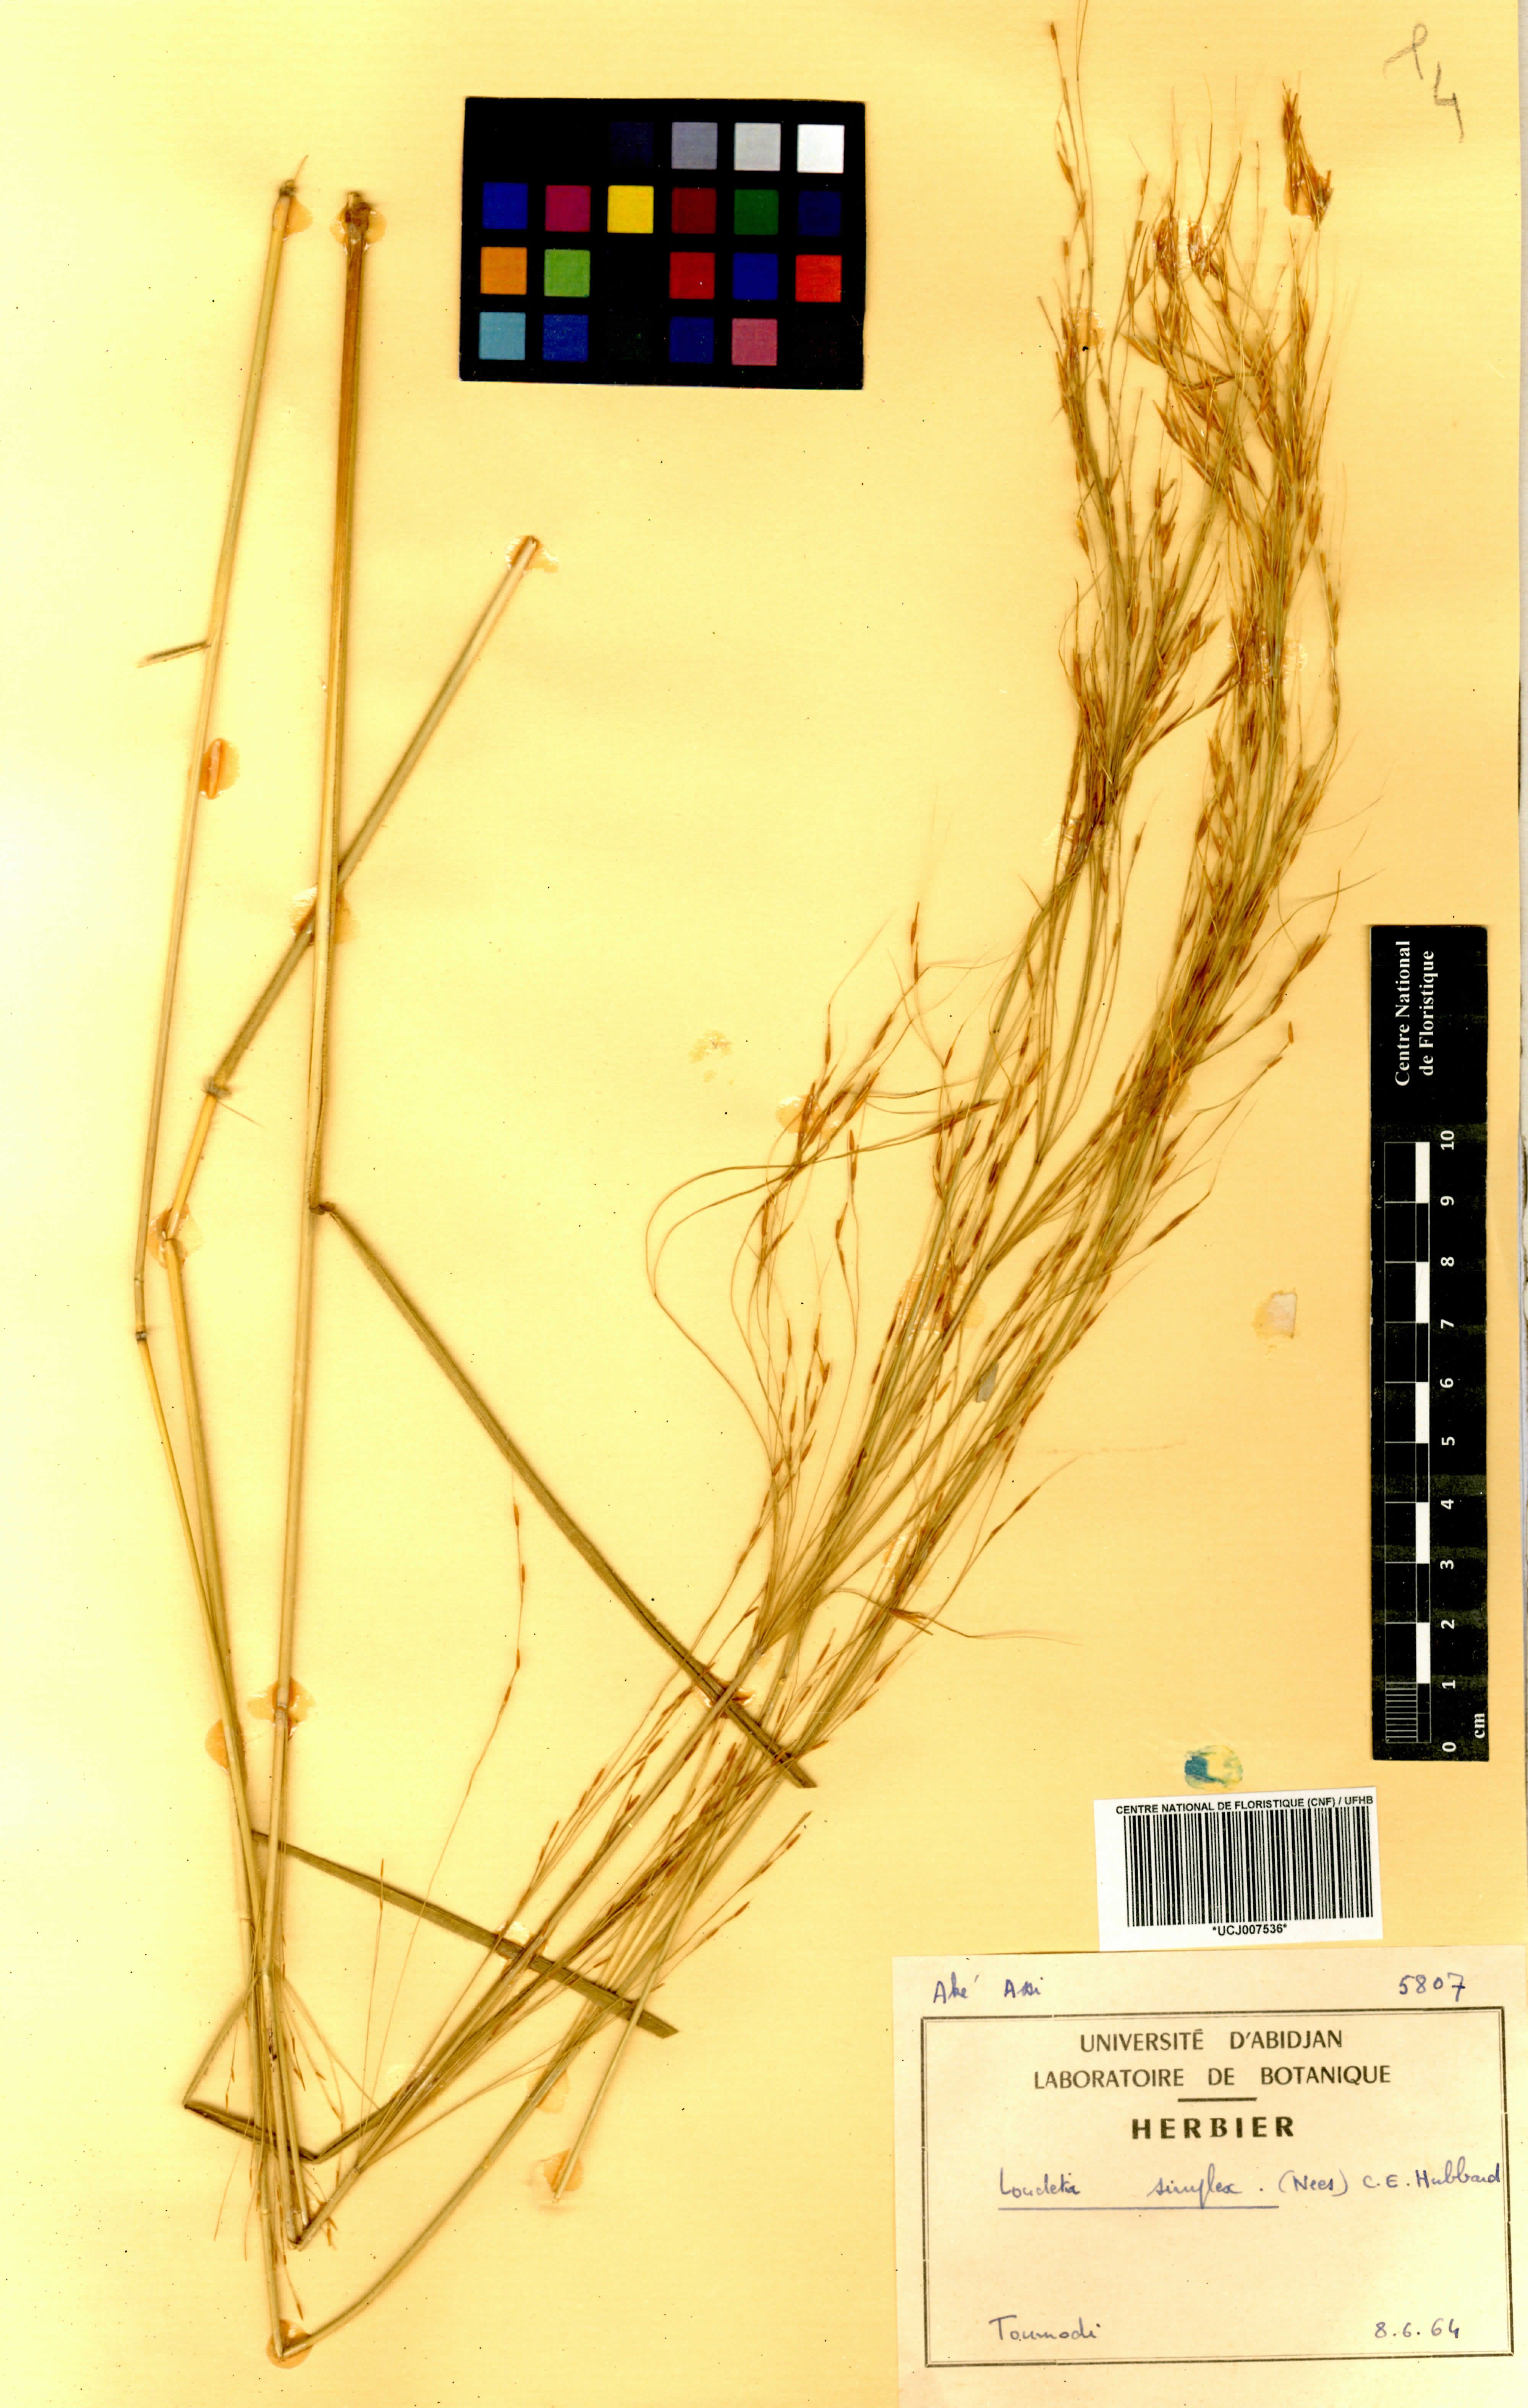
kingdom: Plantae
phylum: Tracheophyta
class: Liliopsida
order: Poales
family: Poaceae
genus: Loudetia
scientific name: Loudetia simplex
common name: Common russet grass
